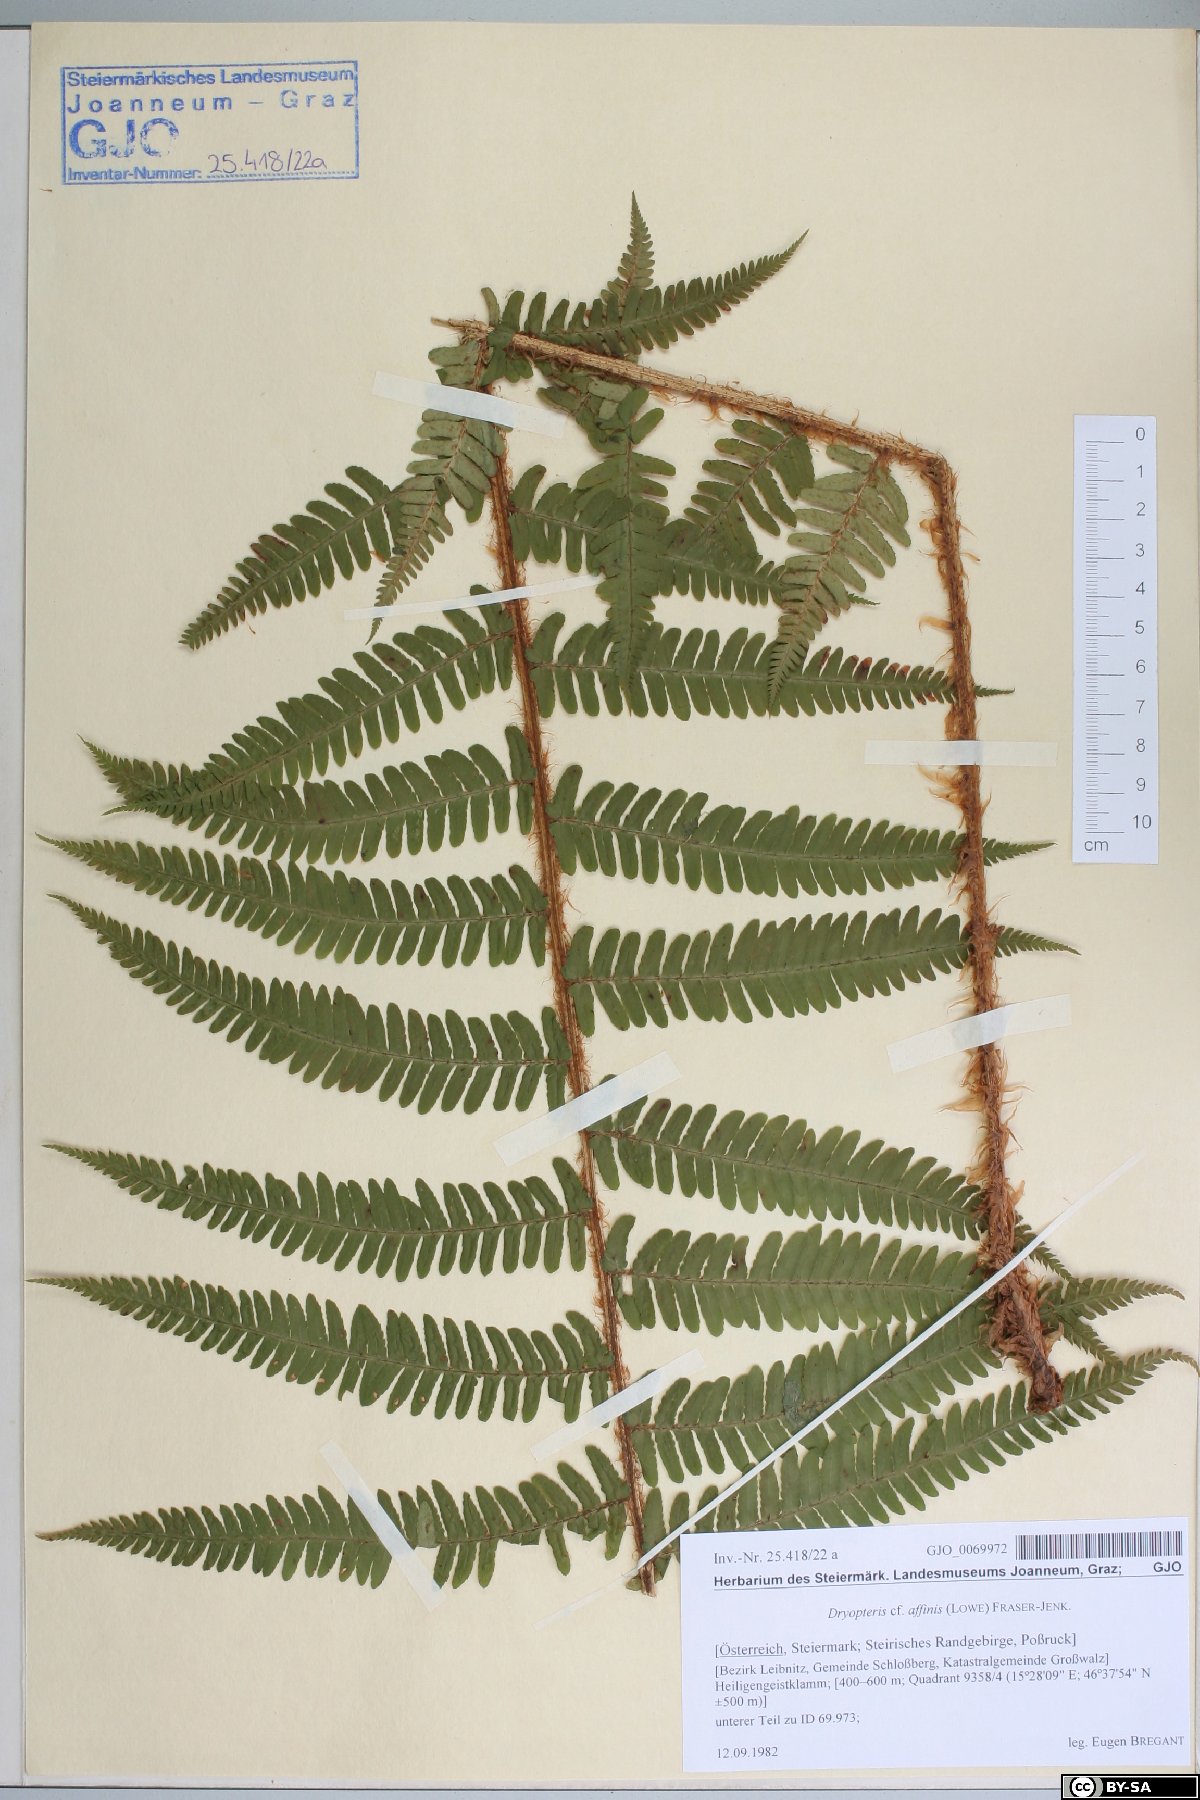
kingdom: Plantae
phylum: Tracheophyta
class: Polypodiopsida
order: Polypodiales
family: Dryopteridaceae
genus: Dryopteris
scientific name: Dryopteris affinis
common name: Scaly male fern
